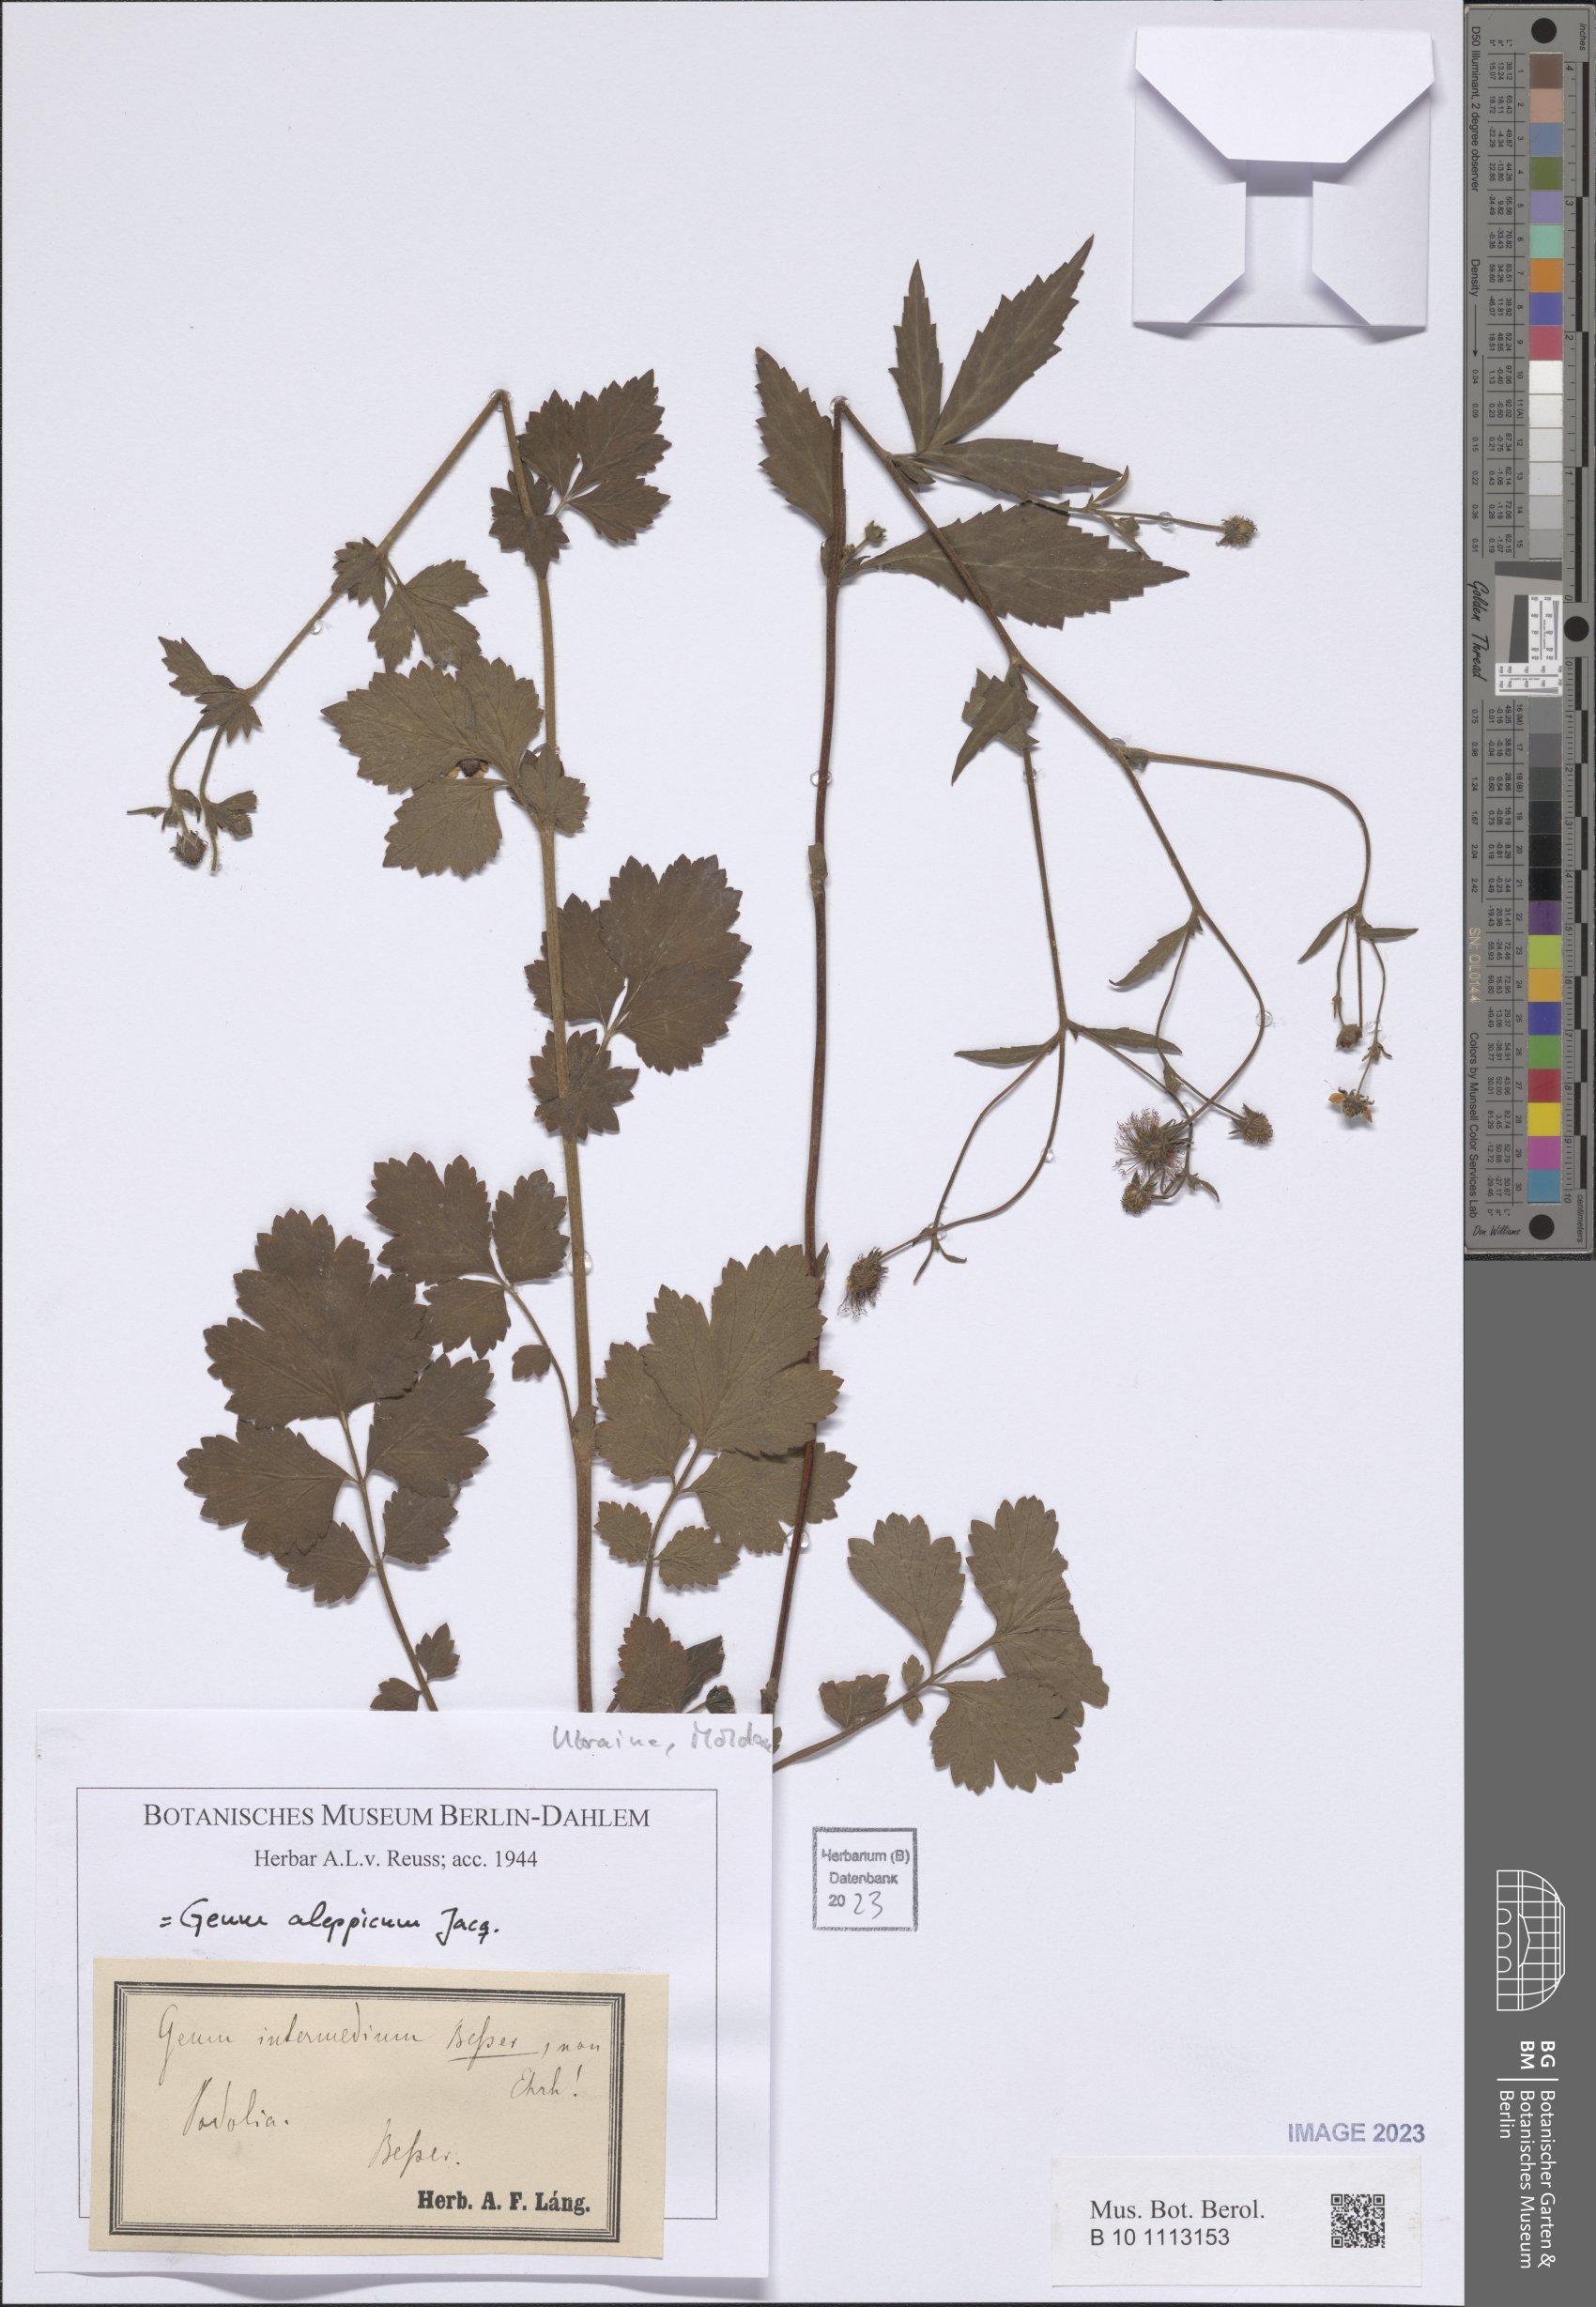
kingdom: Plantae
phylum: Tracheophyta
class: Magnoliopsida
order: Rosales
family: Rosaceae
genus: Geum
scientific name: Geum aleppicum
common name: Yellow avens
